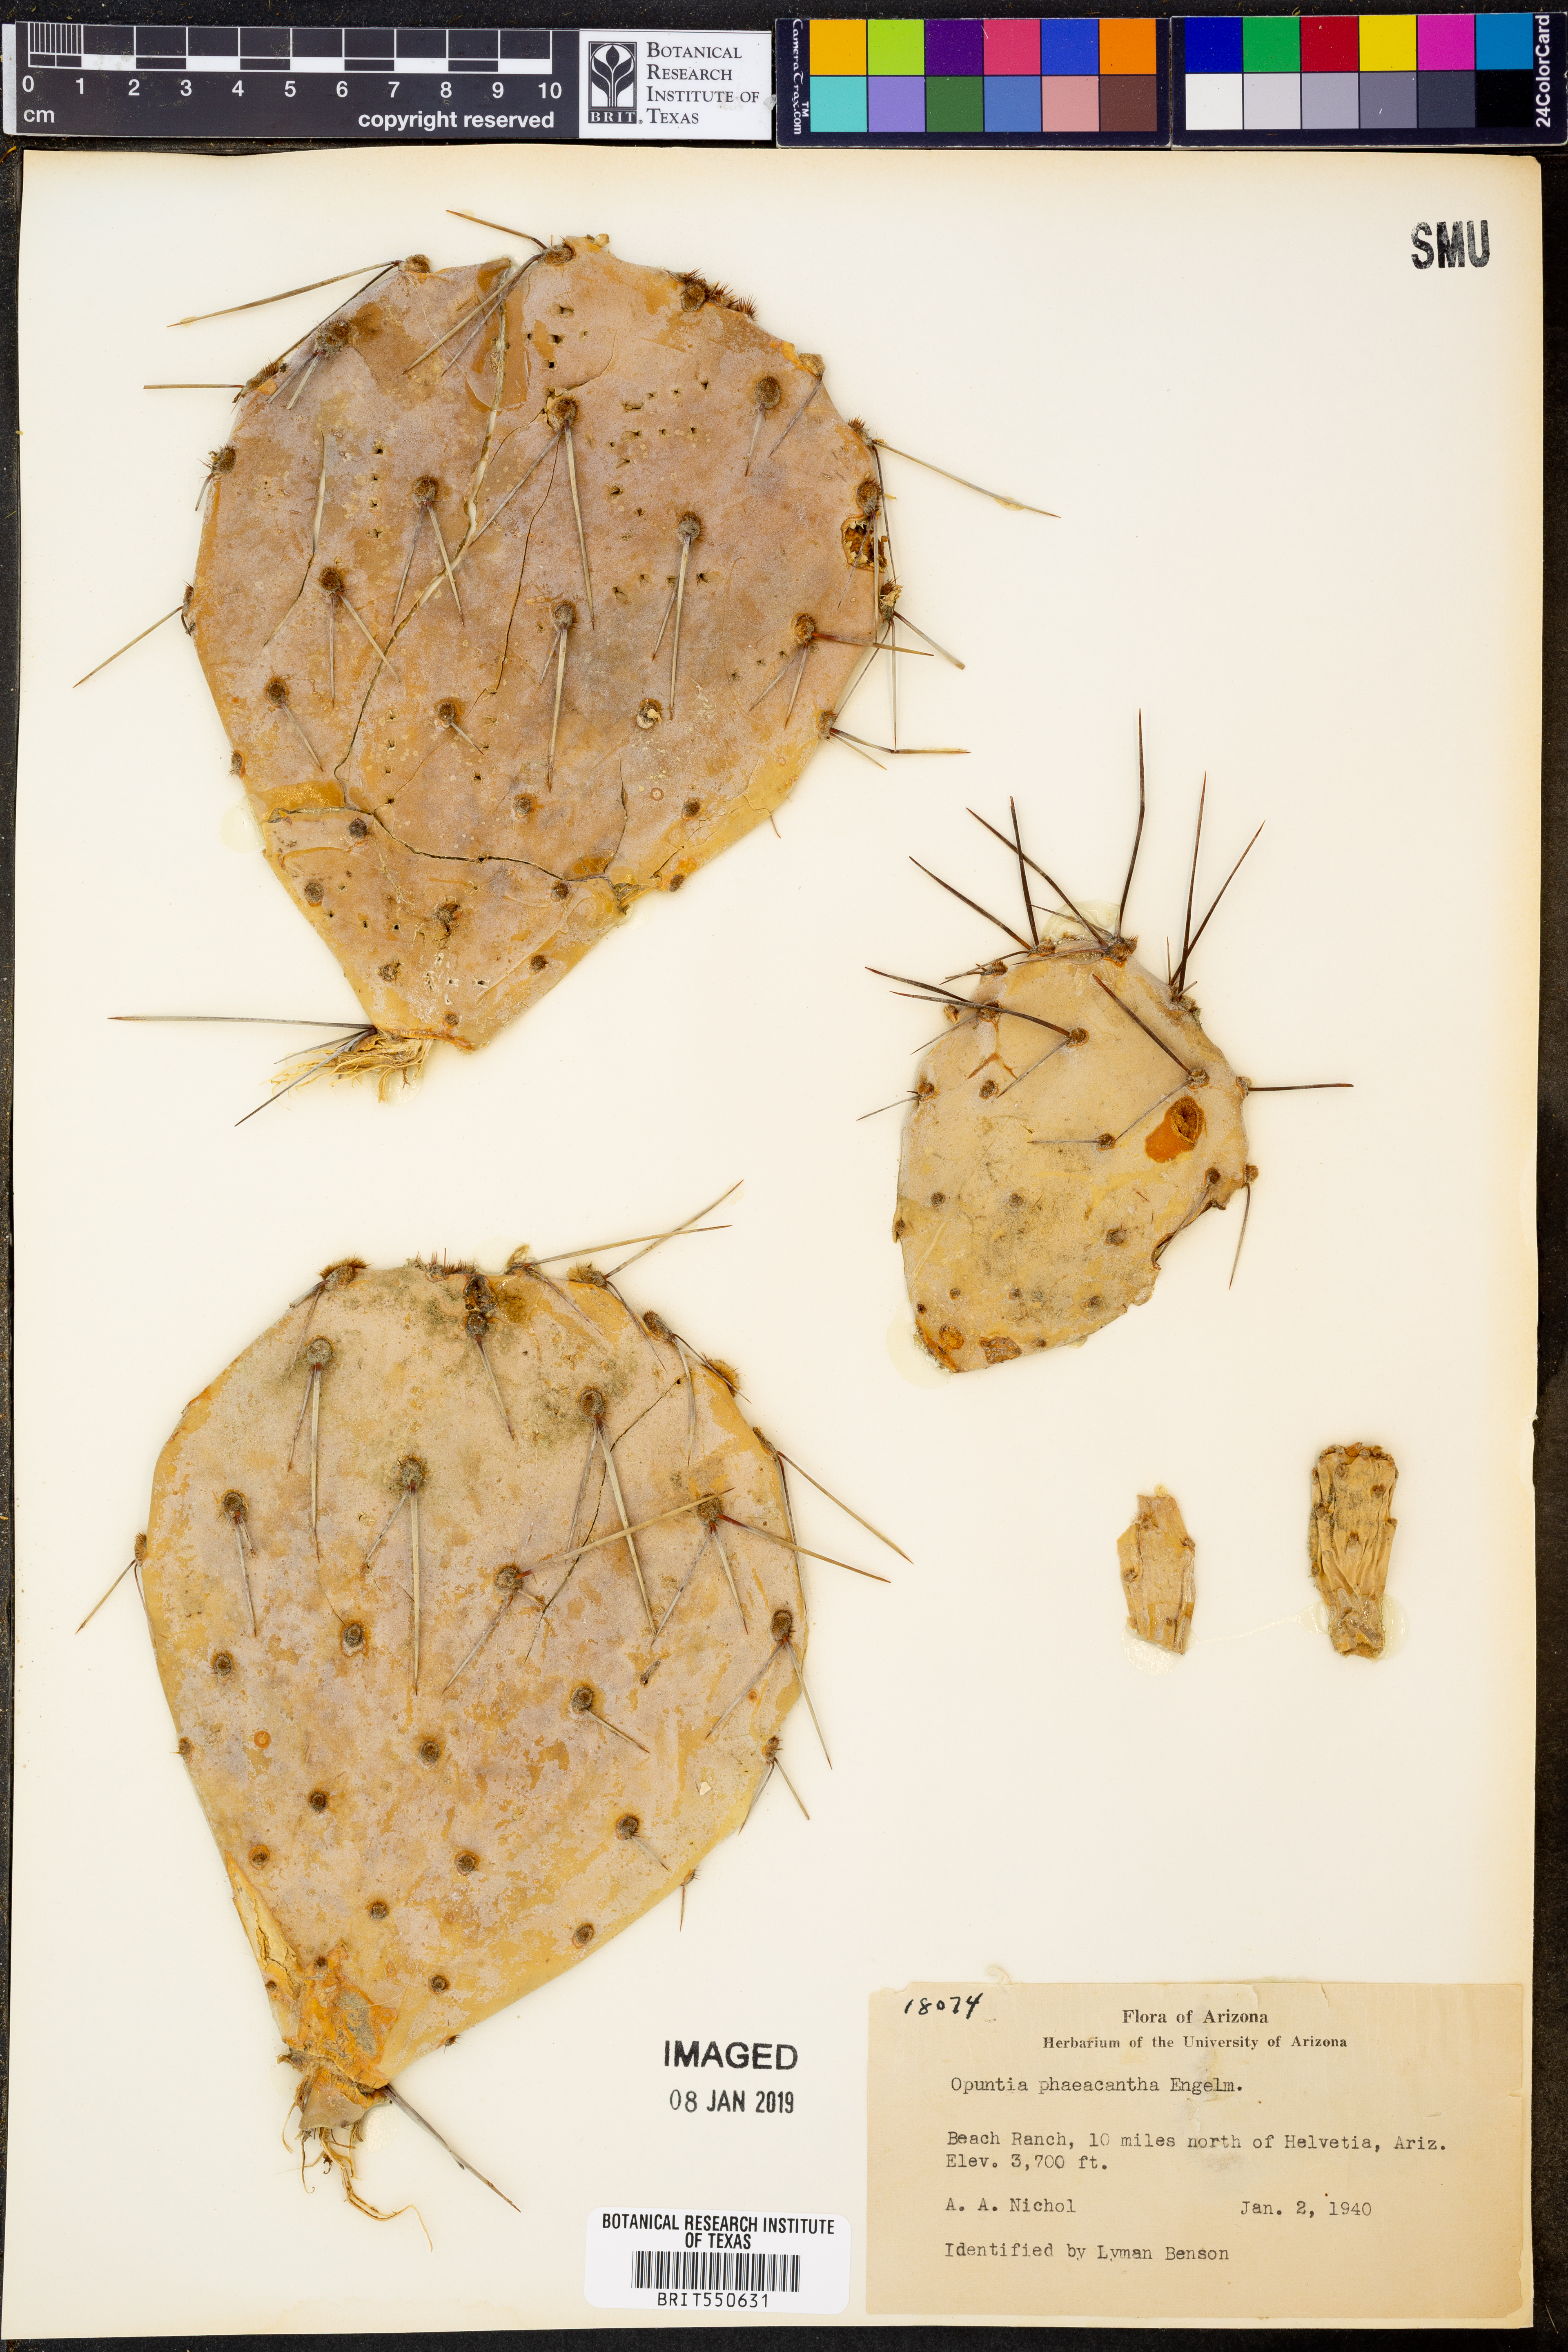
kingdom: Plantae
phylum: Tracheophyta
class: Magnoliopsida
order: Caryophyllales
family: Cactaceae
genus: Opuntia
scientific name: Opuntia phaeacantha
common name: New mexico prickly-pear
